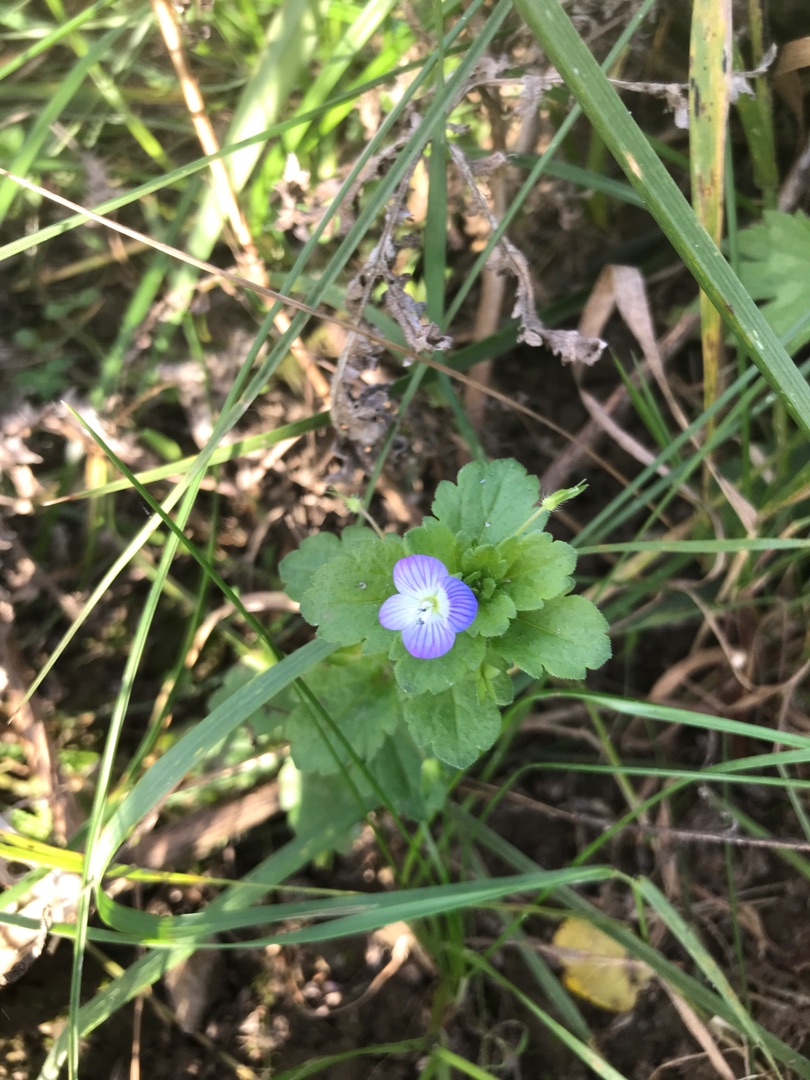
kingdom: Plantae
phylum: Tracheophyta
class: Magnoliopsida
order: Lamiales
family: Plantaginaceae
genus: Veronica
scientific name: Veronica persica
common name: Storkronet ærenpris
